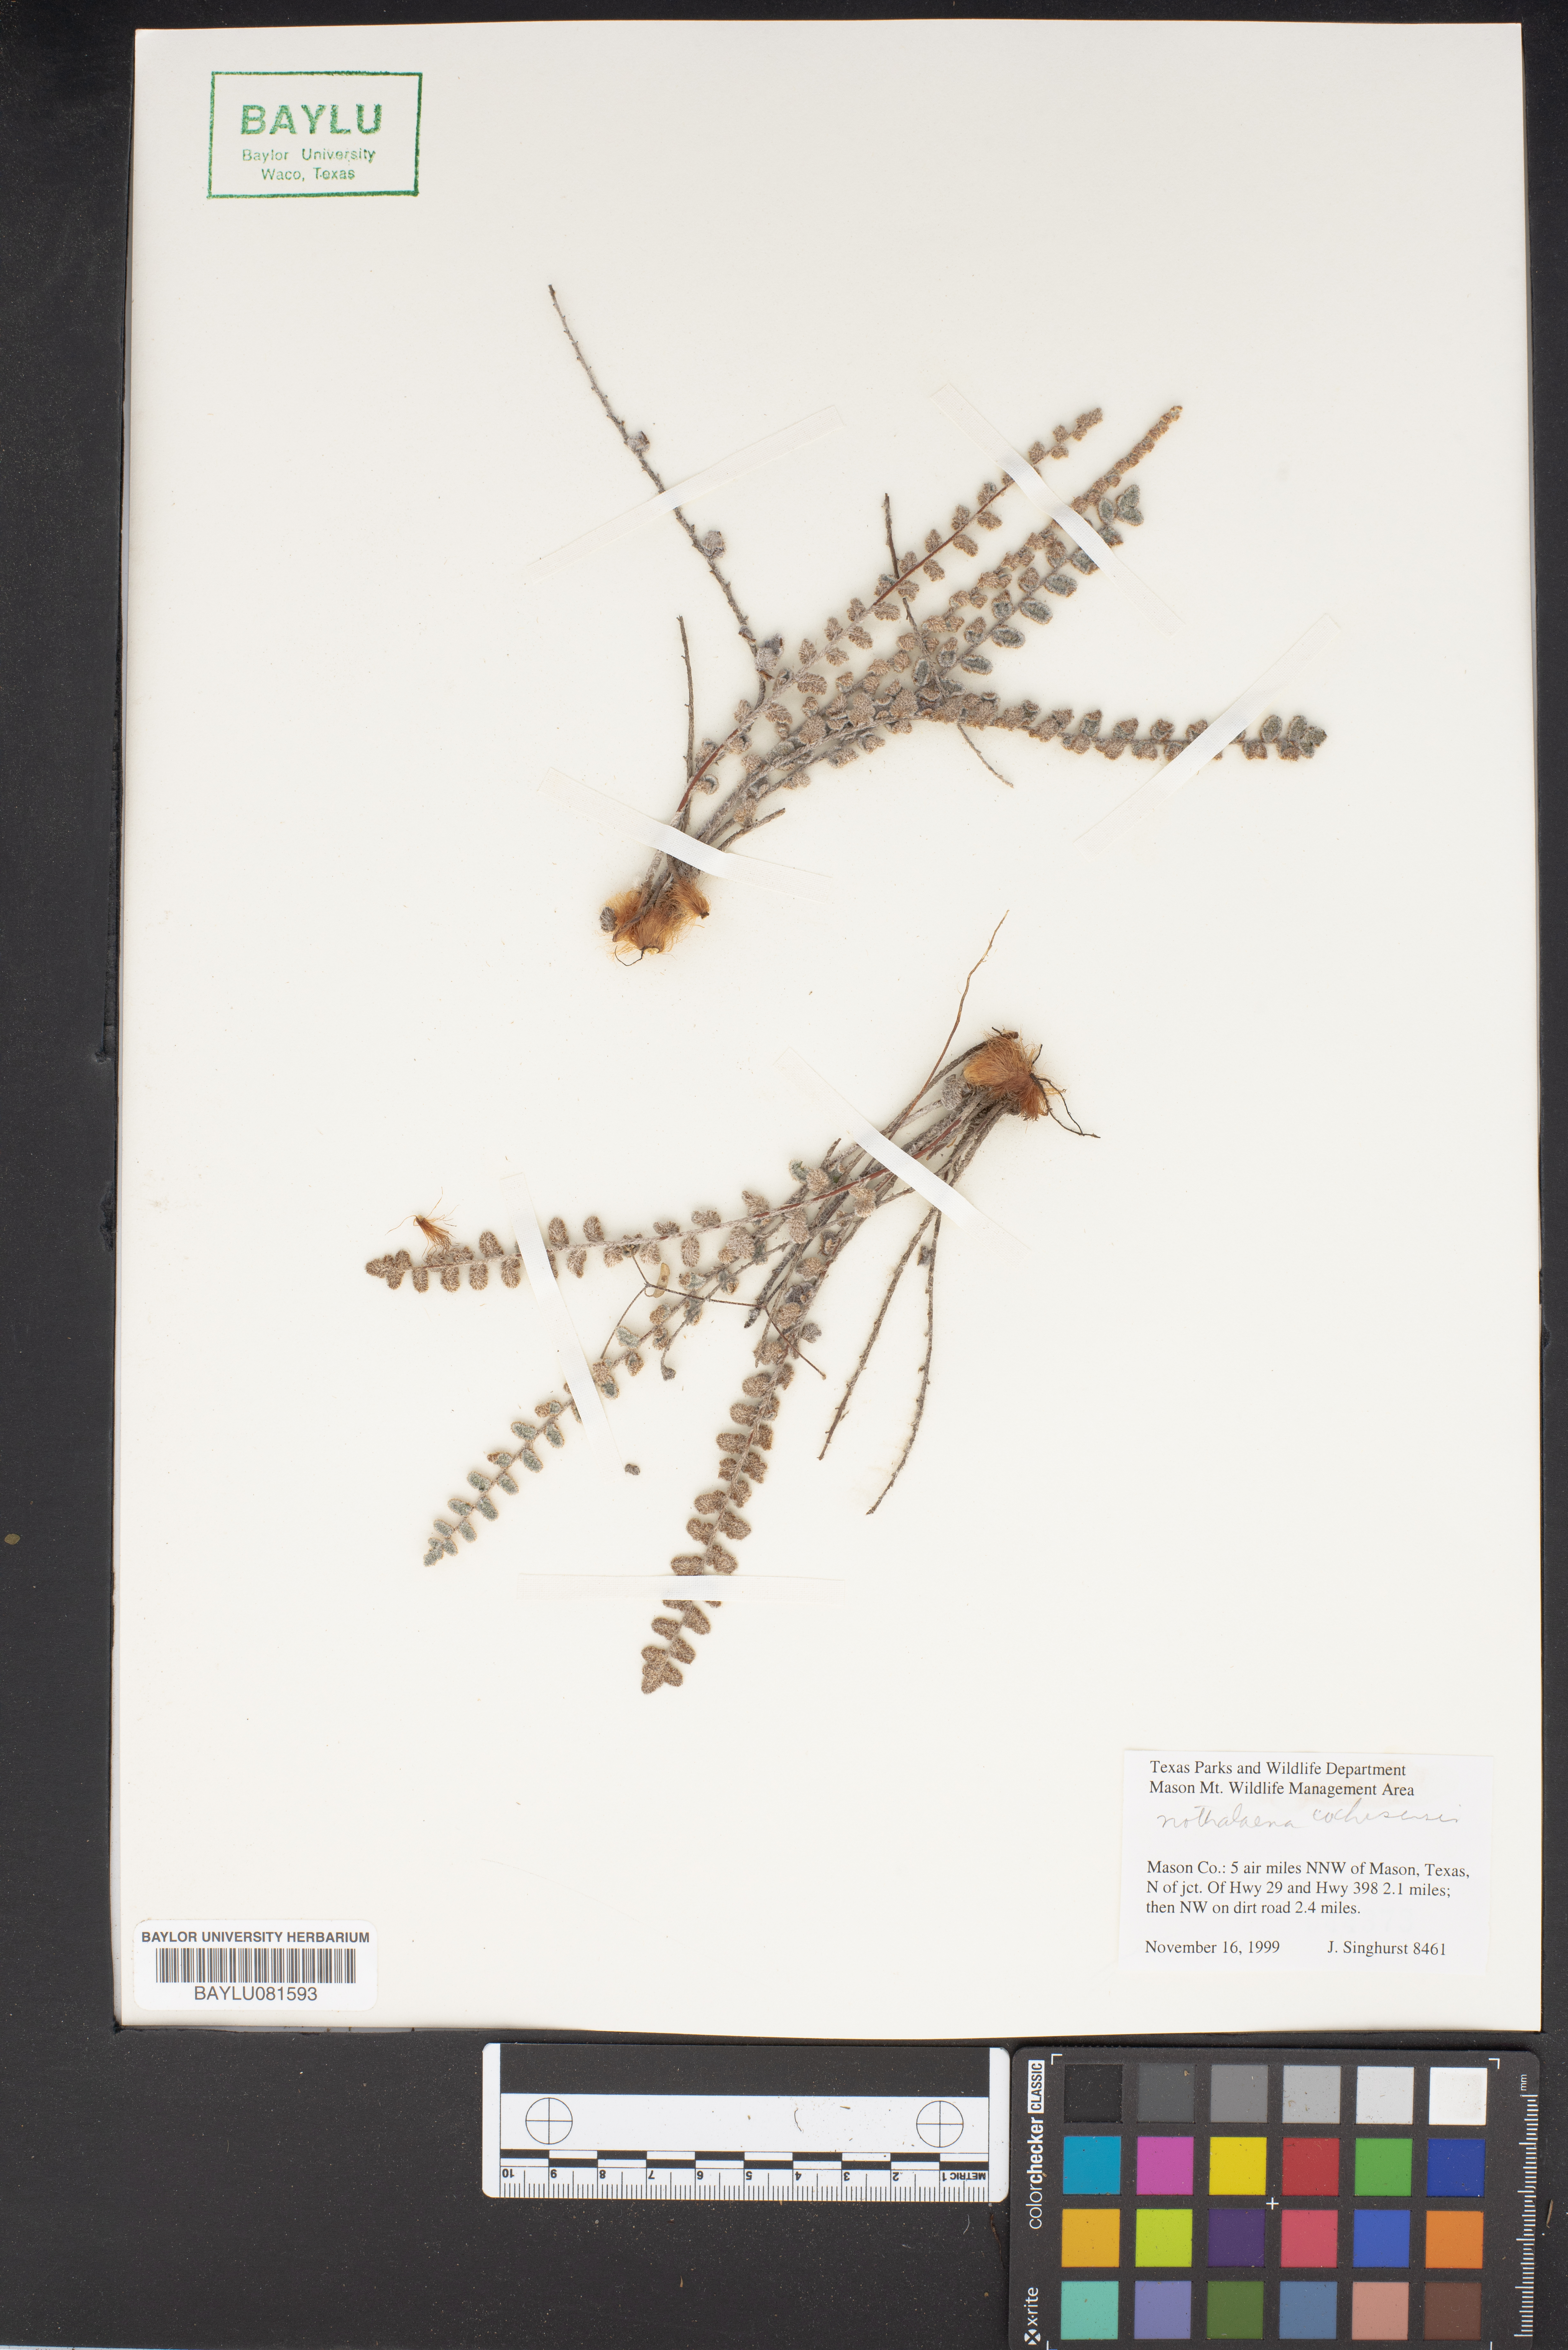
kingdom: Plantae
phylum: Tracheophyta
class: Polypodiopsida
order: Polypodiales
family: Pteridaceae
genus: Astrolepis
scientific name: Astrolepis cochisensis
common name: Scaly cloak fern
